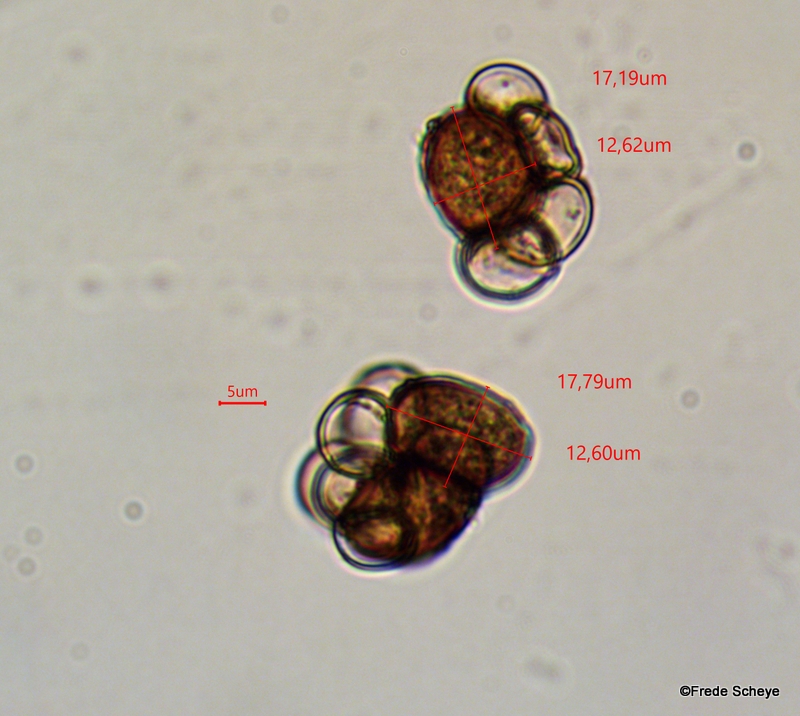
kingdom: Fungi
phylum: Basidiomycota
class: Ustilaginomycetes
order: Urocystidales
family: Urocystidaceae
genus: Urocystis
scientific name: Urocystis anemones
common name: anemone-brand
